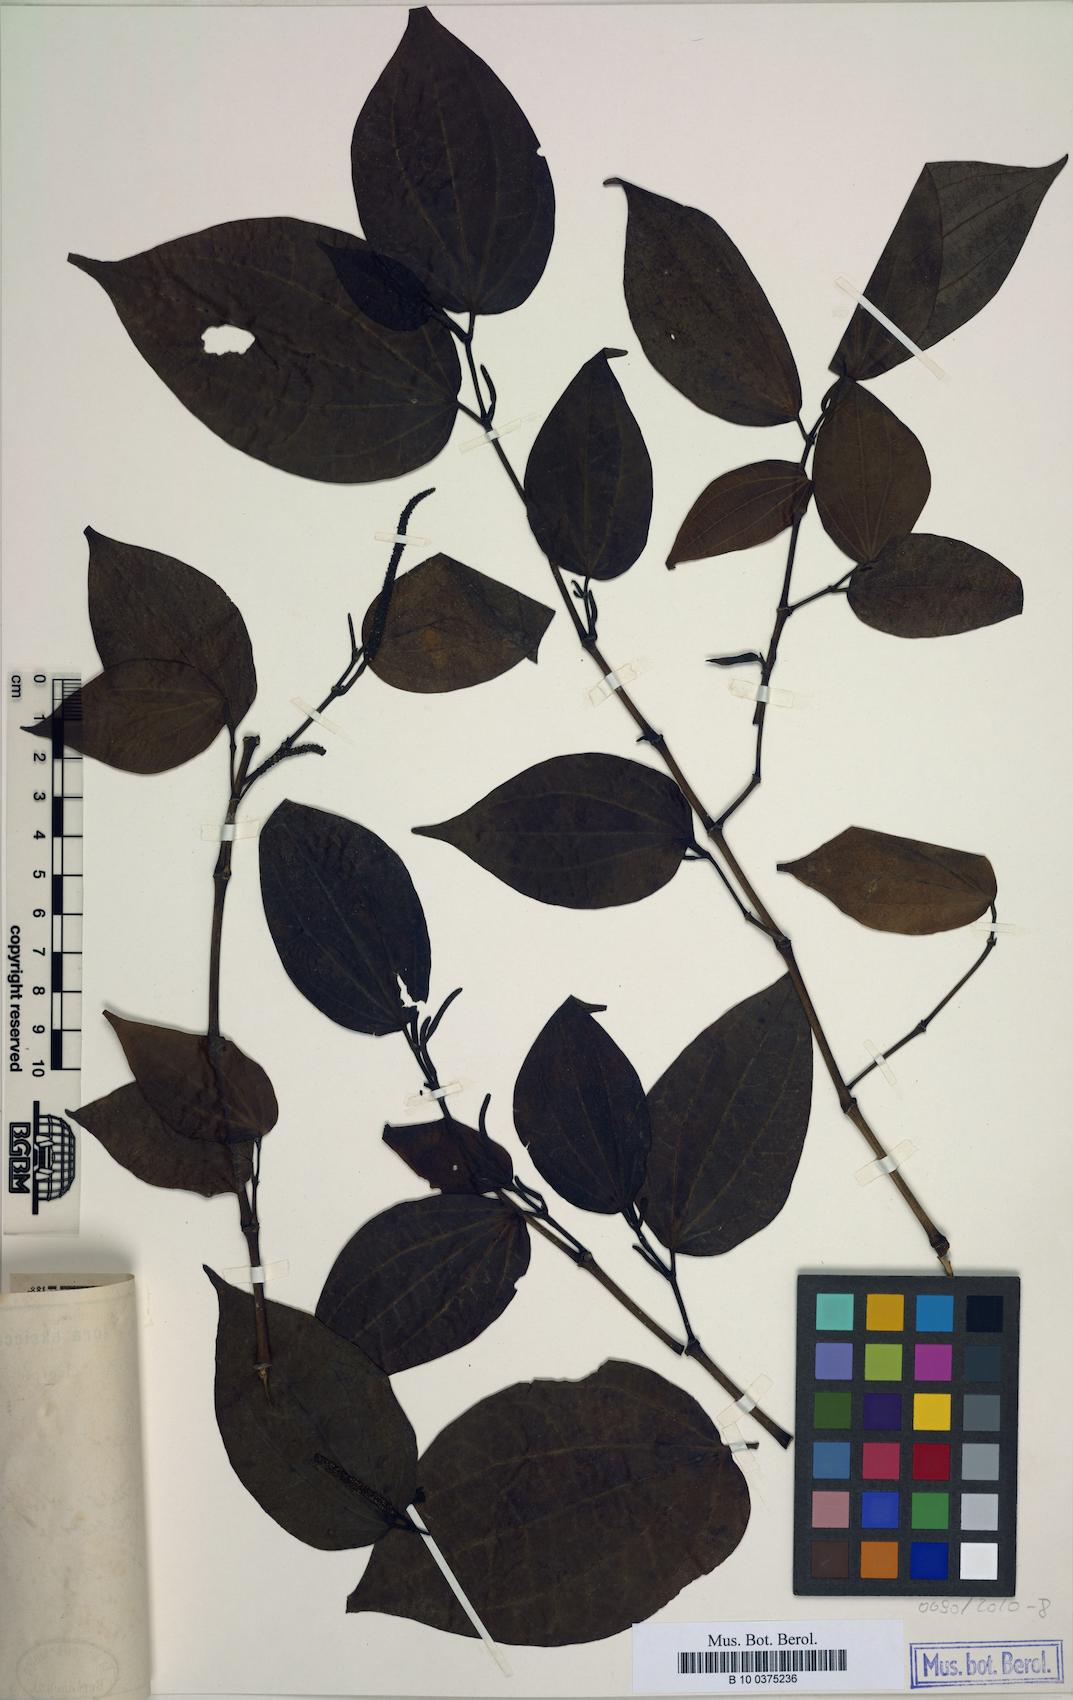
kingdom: Plantae
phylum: Tracheophyta
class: Magnoliopsida
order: Piperales
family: Piperaceae
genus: Piper
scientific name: Piper
